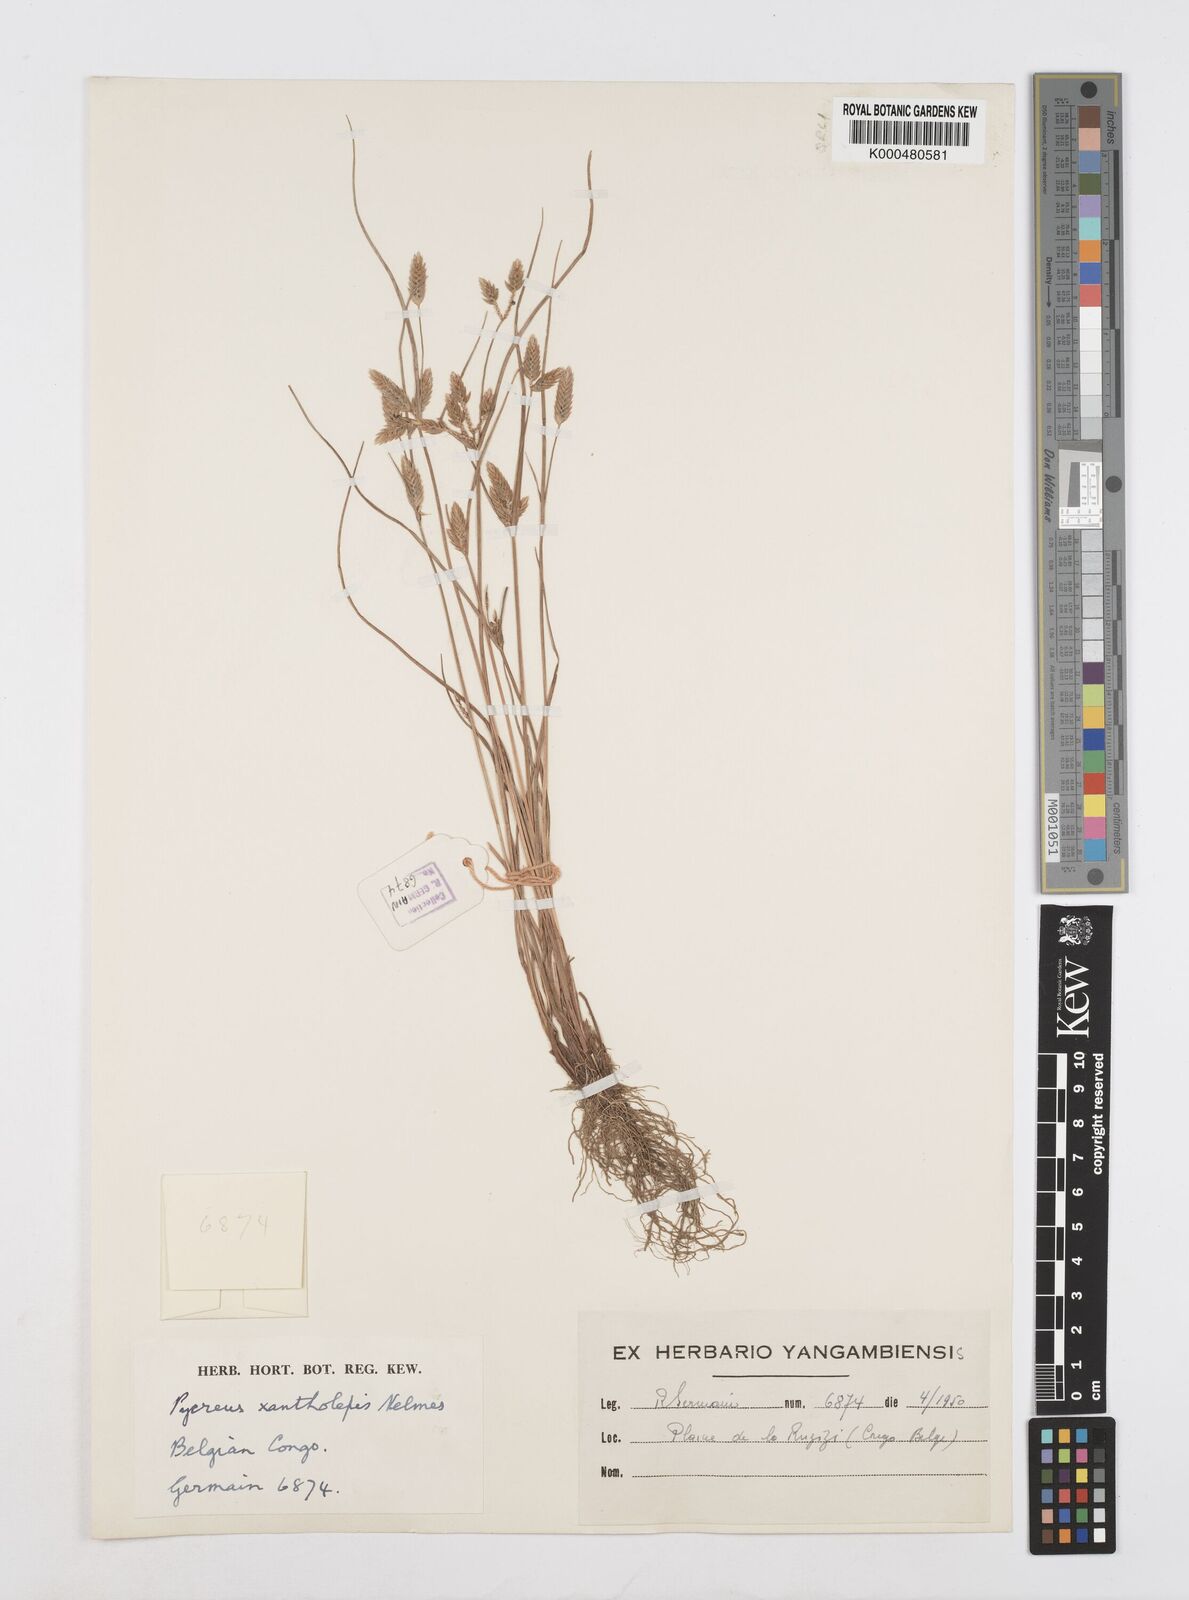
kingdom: Plantae
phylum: Tracheophyta
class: Liliopsida
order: Poales
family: Cyperaceae
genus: Cyperus
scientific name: Cyperus xantholepis
